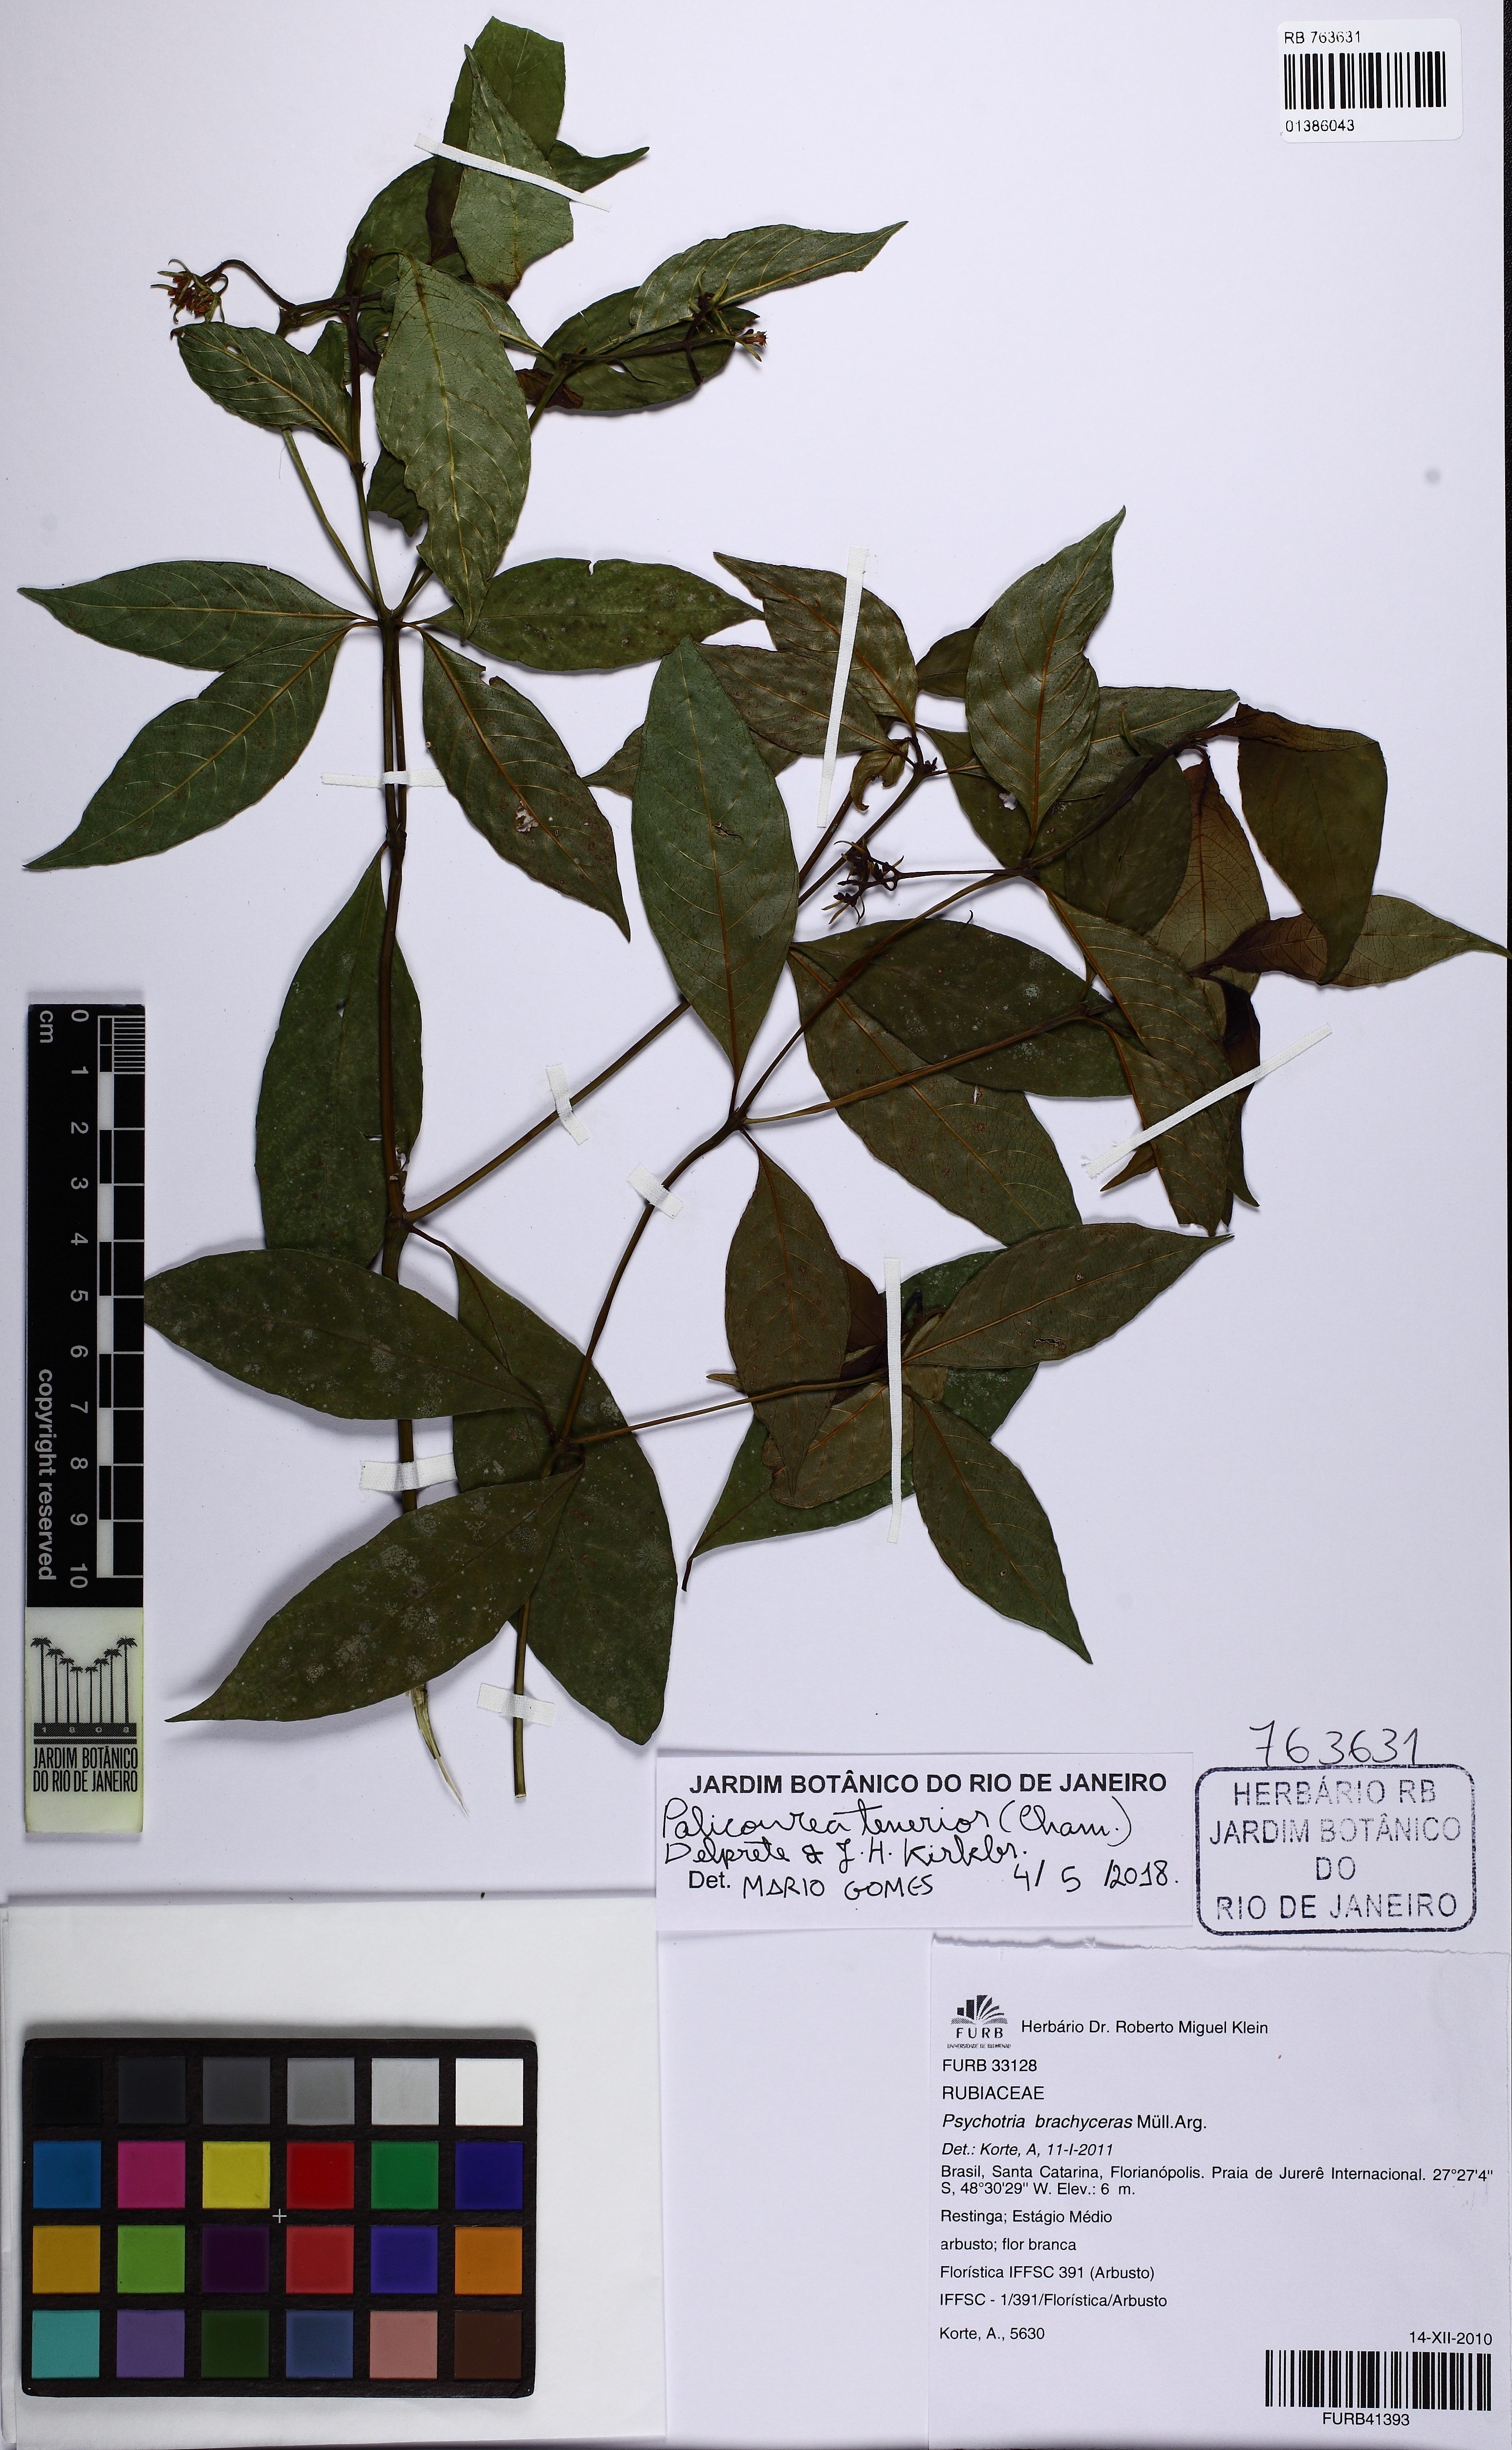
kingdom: Plantae
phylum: Tracheophyta
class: Magnoliopsida
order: Gentianales
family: Rubiaceae
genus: Palicourea
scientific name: Palicourea tenerior
